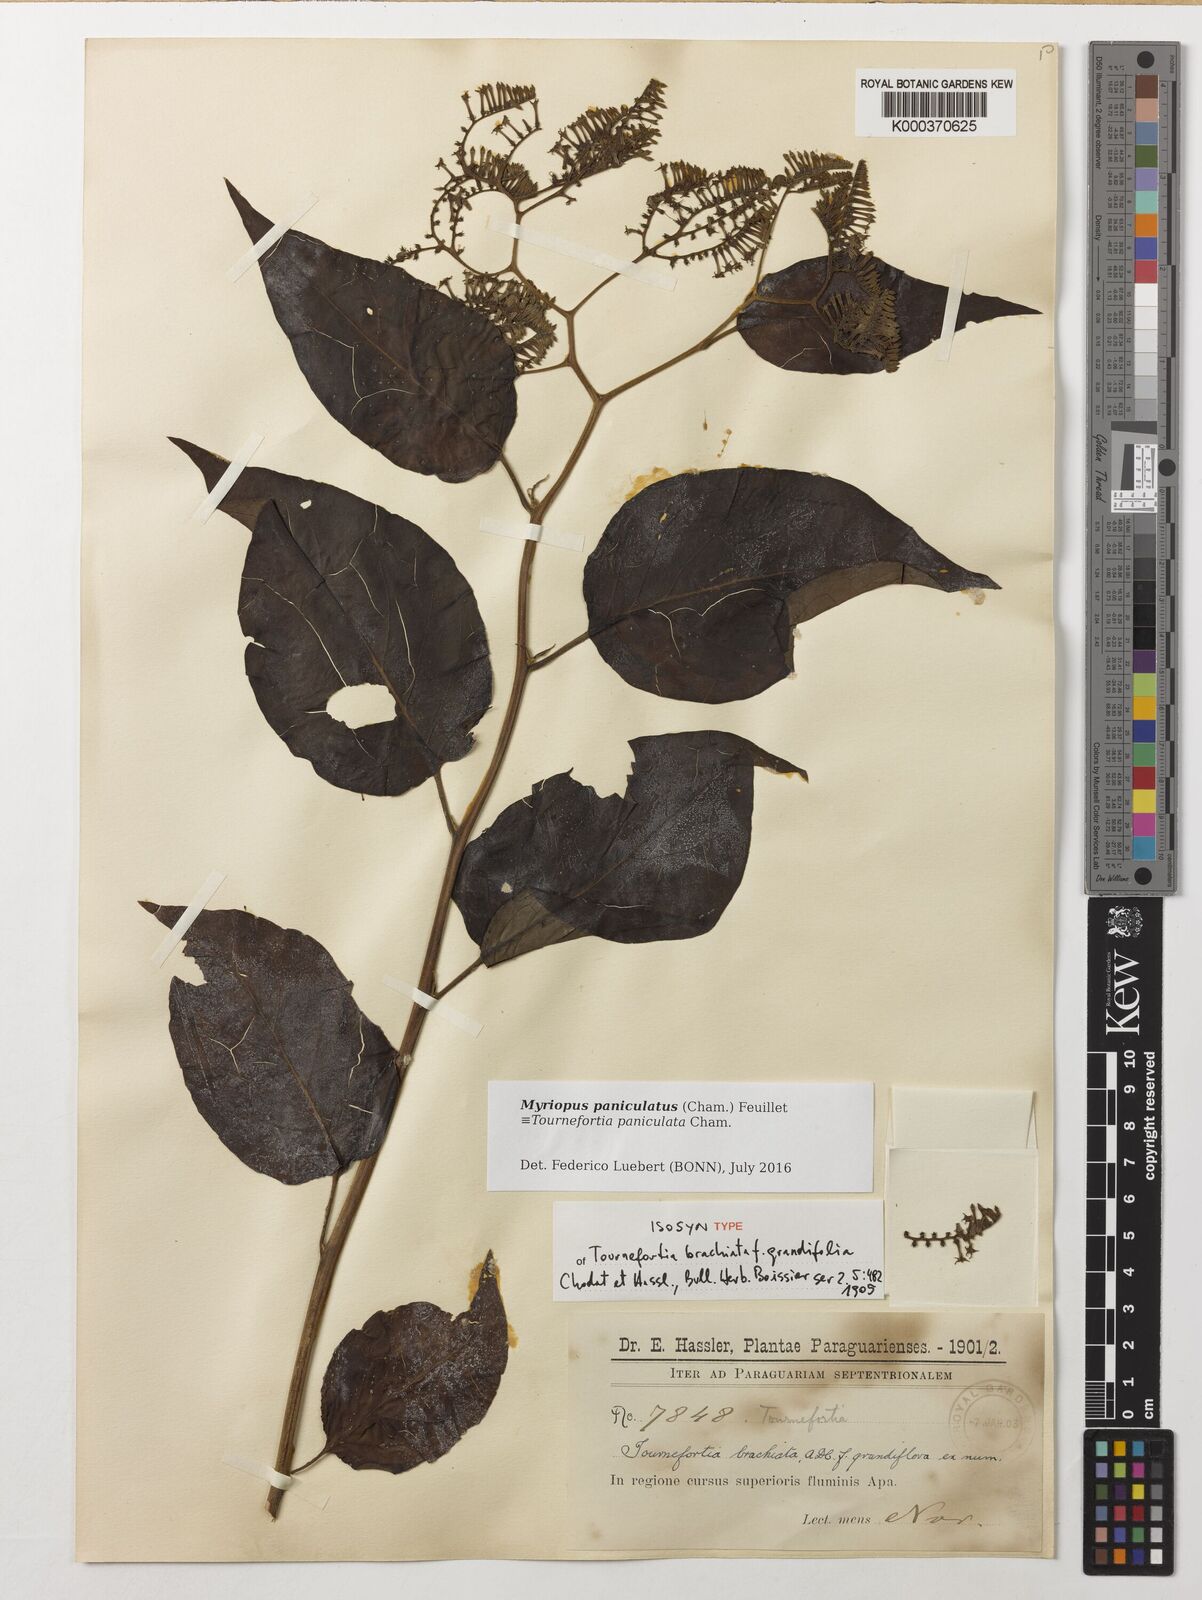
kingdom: Plantae
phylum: Tracheophyta
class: Magnoliopsida
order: Boraginales
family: Heliotropiaceae
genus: Myriopus
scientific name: Myriopus paniculatus
